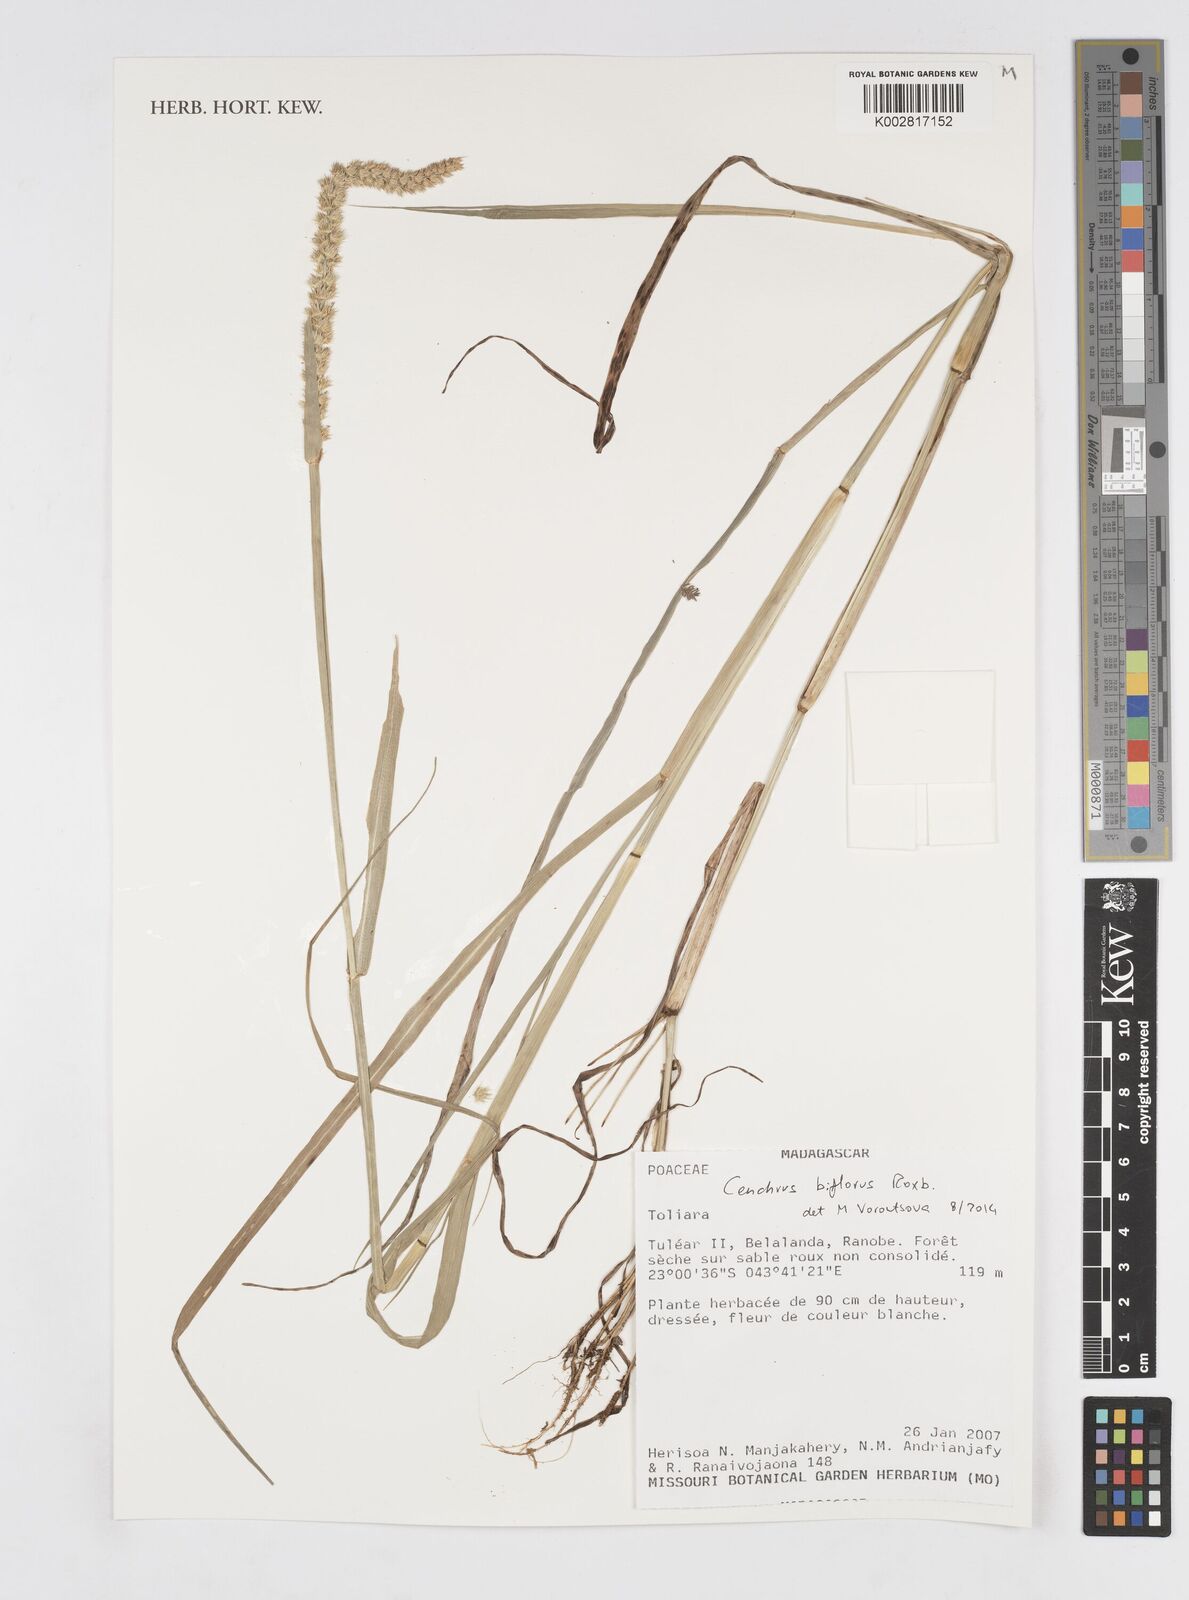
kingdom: Plantae
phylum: Tracheophyta
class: Liliopsida
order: Poales
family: Poaceae
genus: Cenchrus
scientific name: Cenchrus biflorus
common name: Indian sandbur
